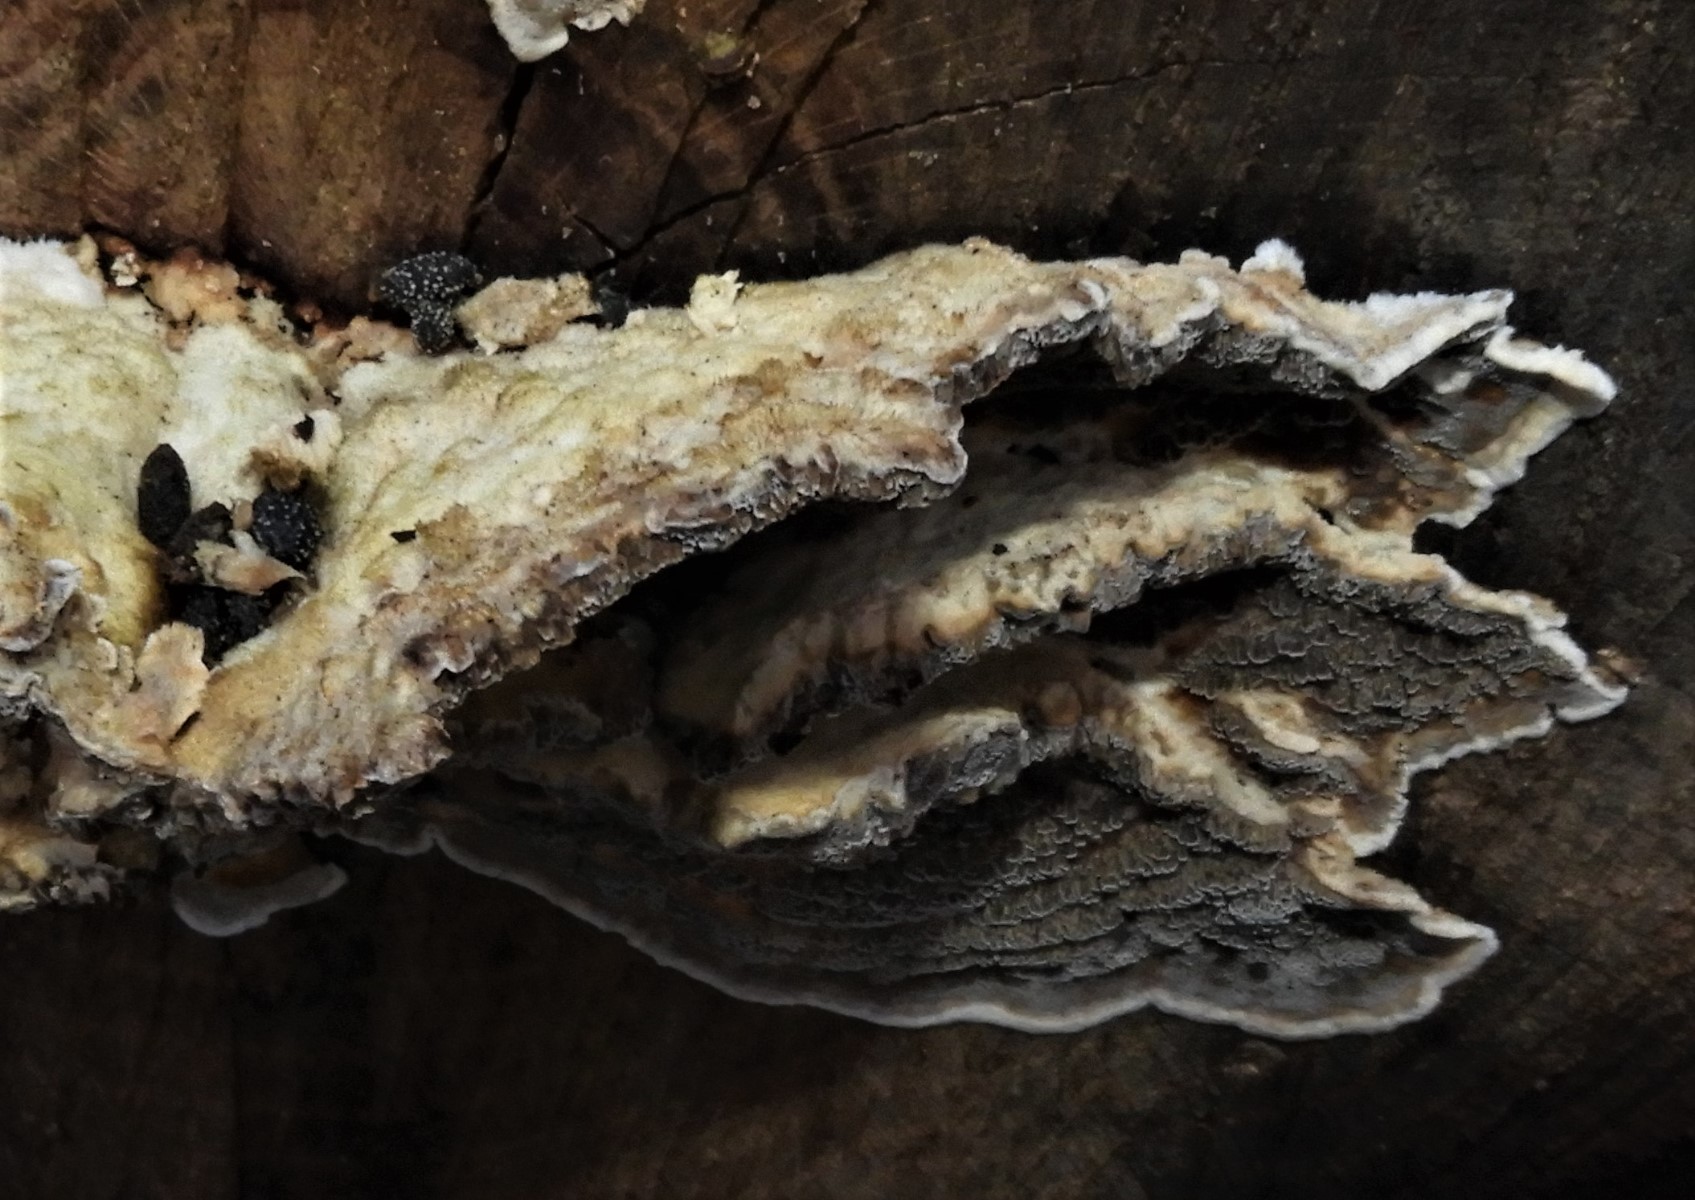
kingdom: Fungi
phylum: Basidiomycota
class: Agaricomycetes
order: Polyporales
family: Phanerochaetaceae
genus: Bjerkandera
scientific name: Bjerkandera adusta
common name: sveden sodporesvamp
